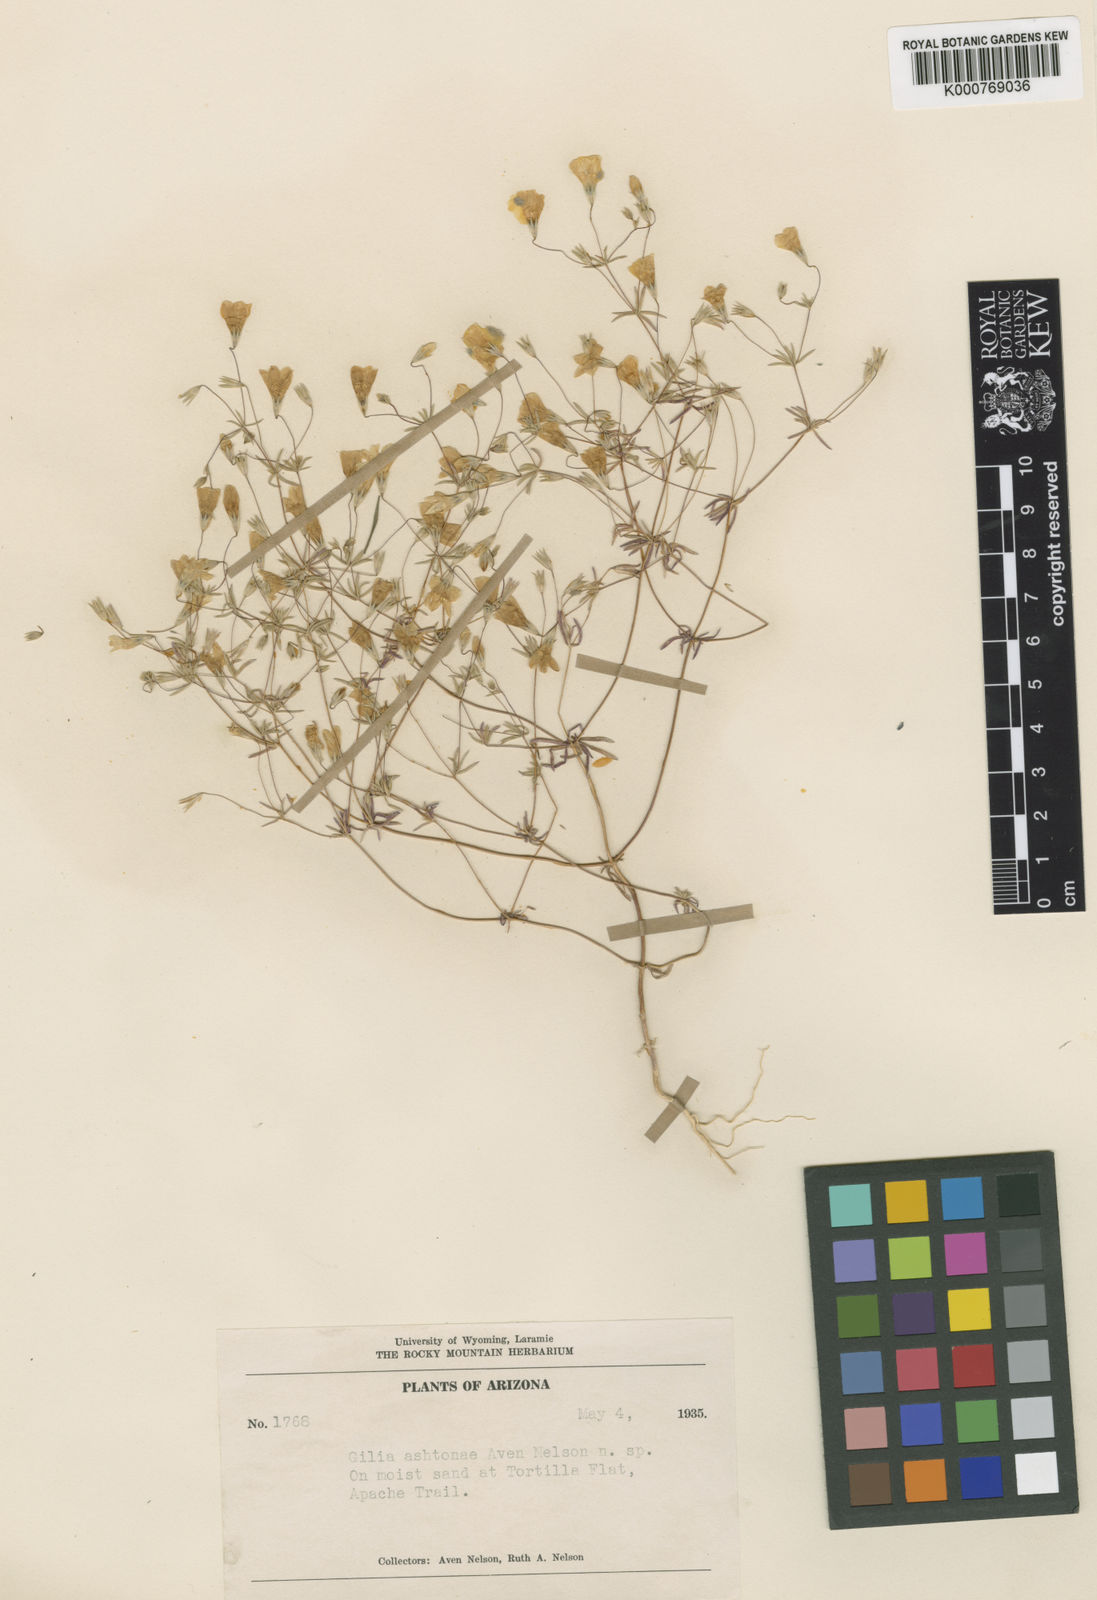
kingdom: Plantae
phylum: Tracheophyta
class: Magnoliopsida
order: Ericales
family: Polemoniaceae
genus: Linanthus
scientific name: Linanthus
